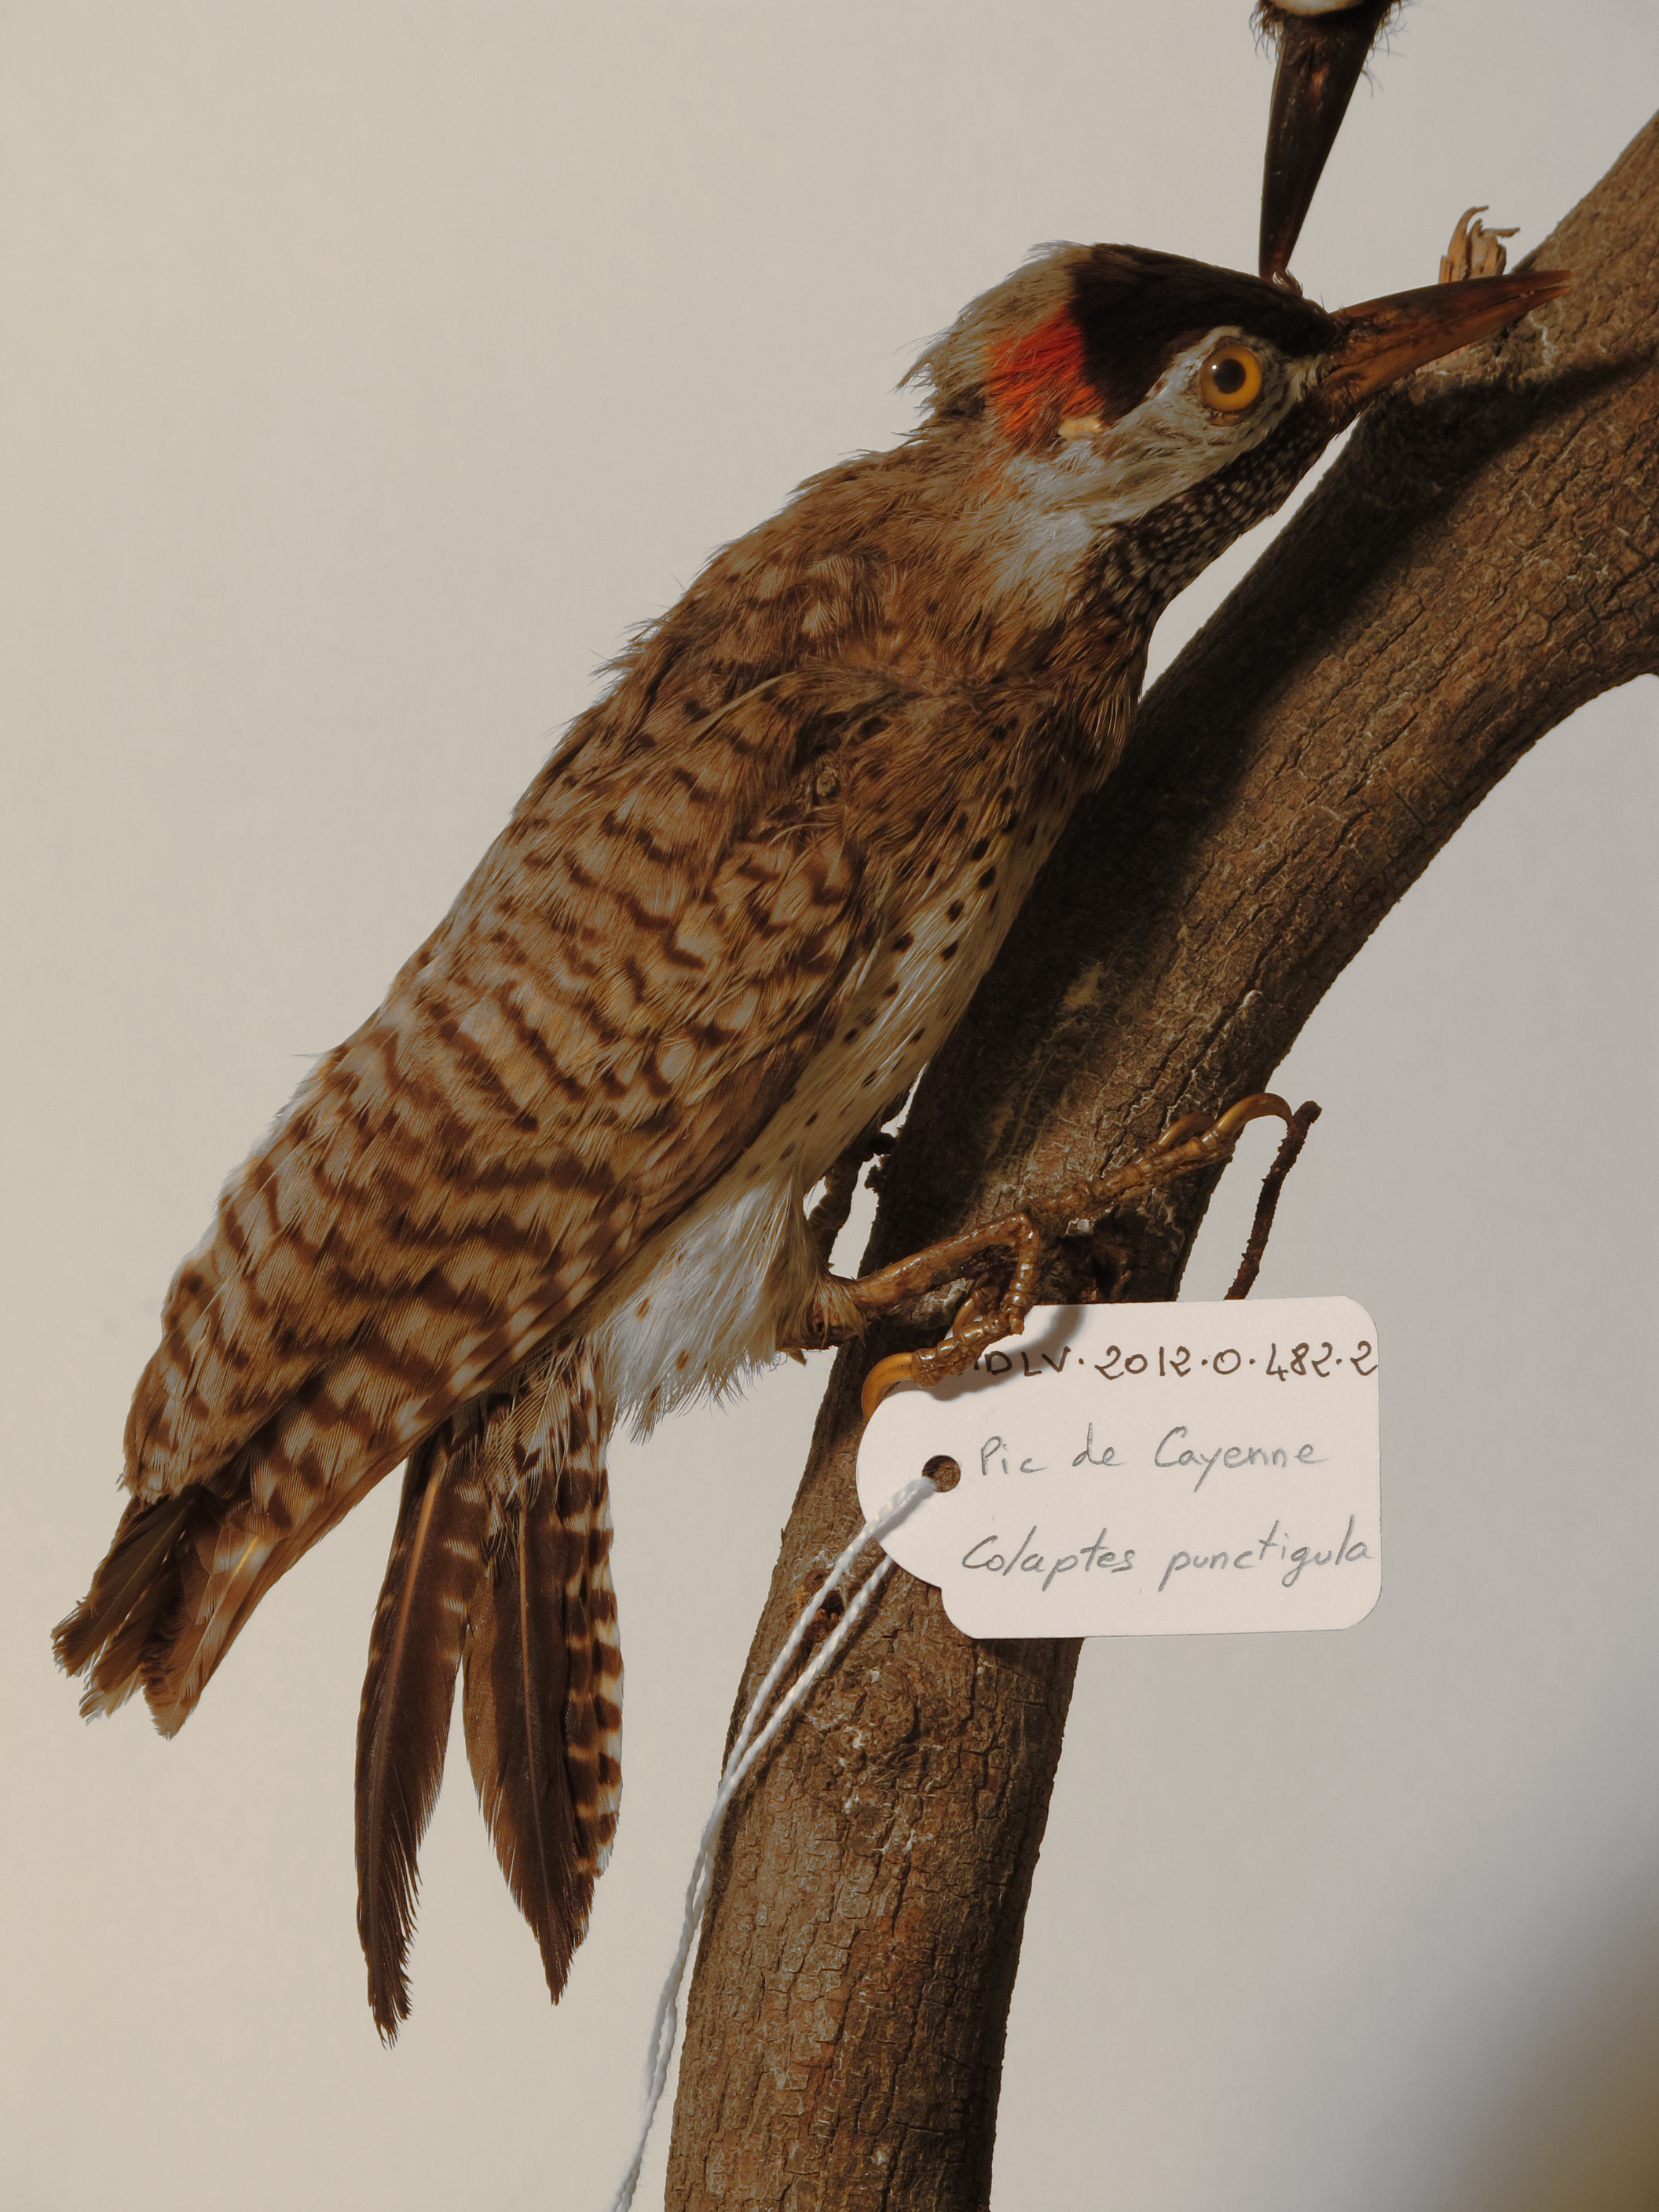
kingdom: Animalia
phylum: Chordata
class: Aves
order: Piciformes
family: Picidae
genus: Colaptes
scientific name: Colaptes punctigula
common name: Spot-breasted Woodpecker
